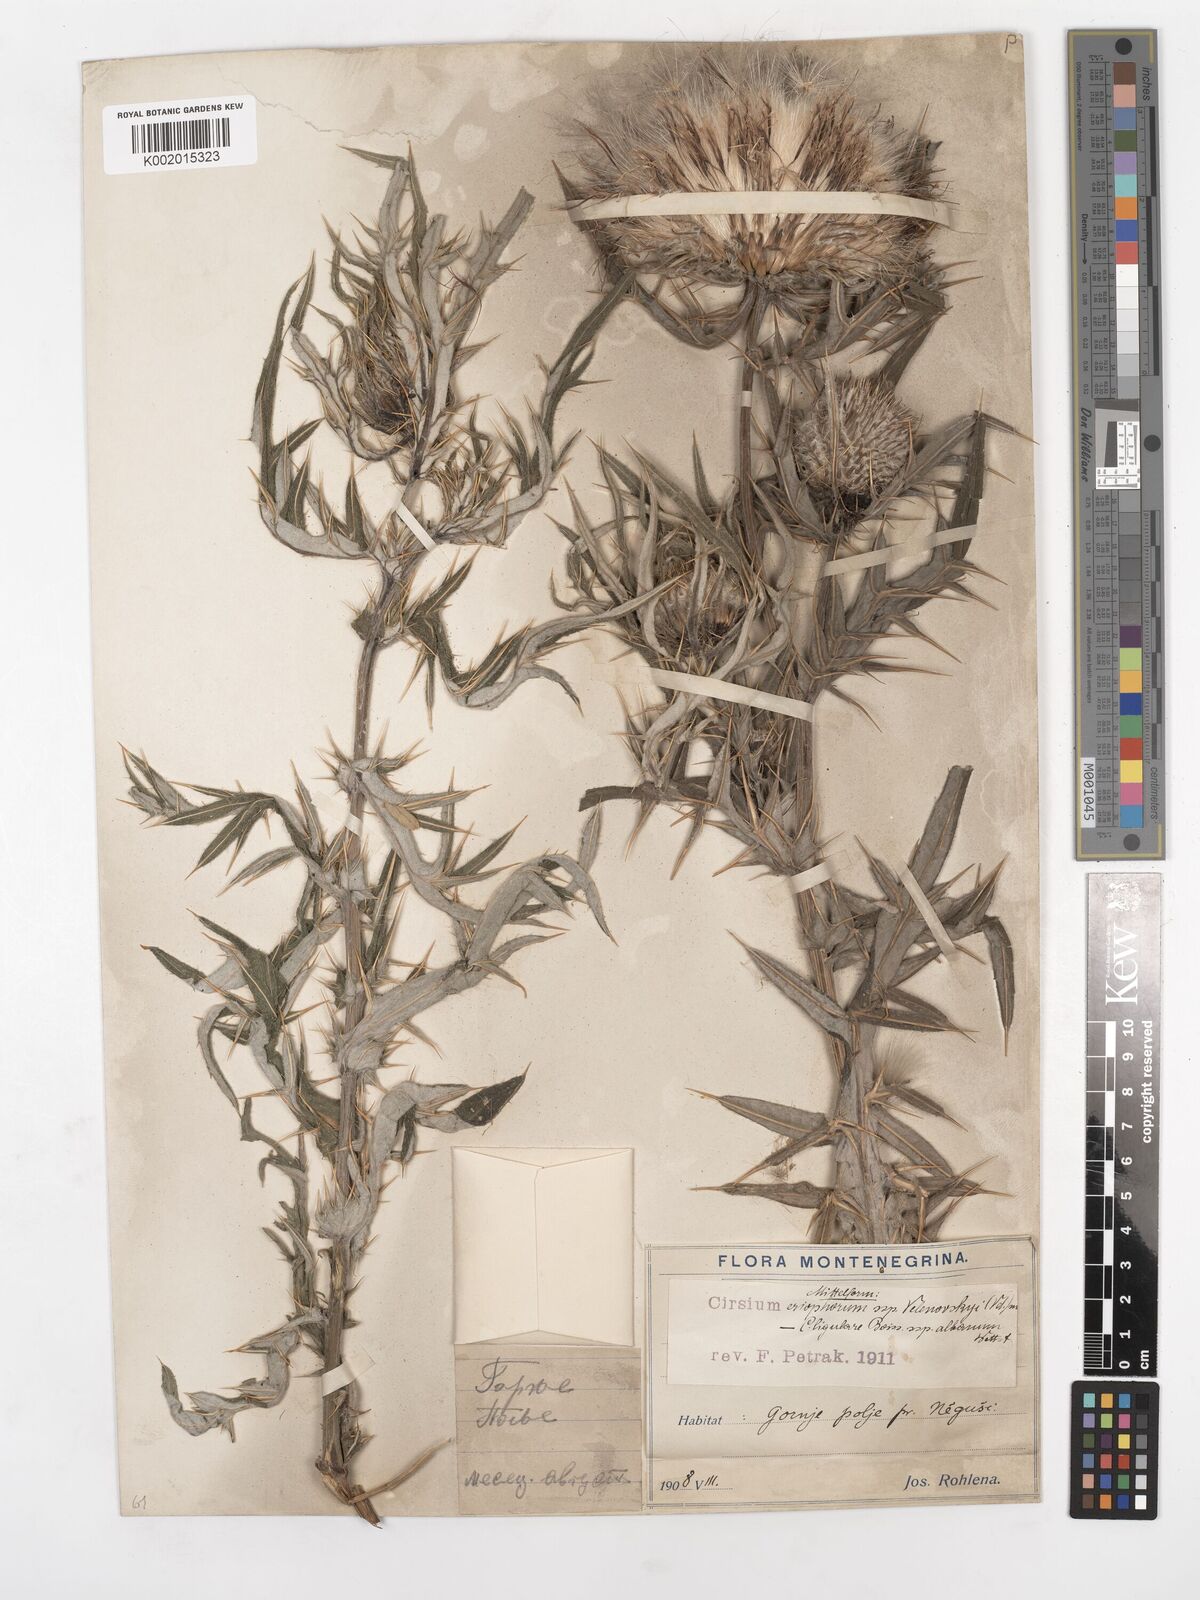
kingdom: Plantae
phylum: Tracheophyta
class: Magnoliopsida
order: Asterales
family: Asteraceae
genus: Lophiolepis
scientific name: Lophiolepis eriophora
